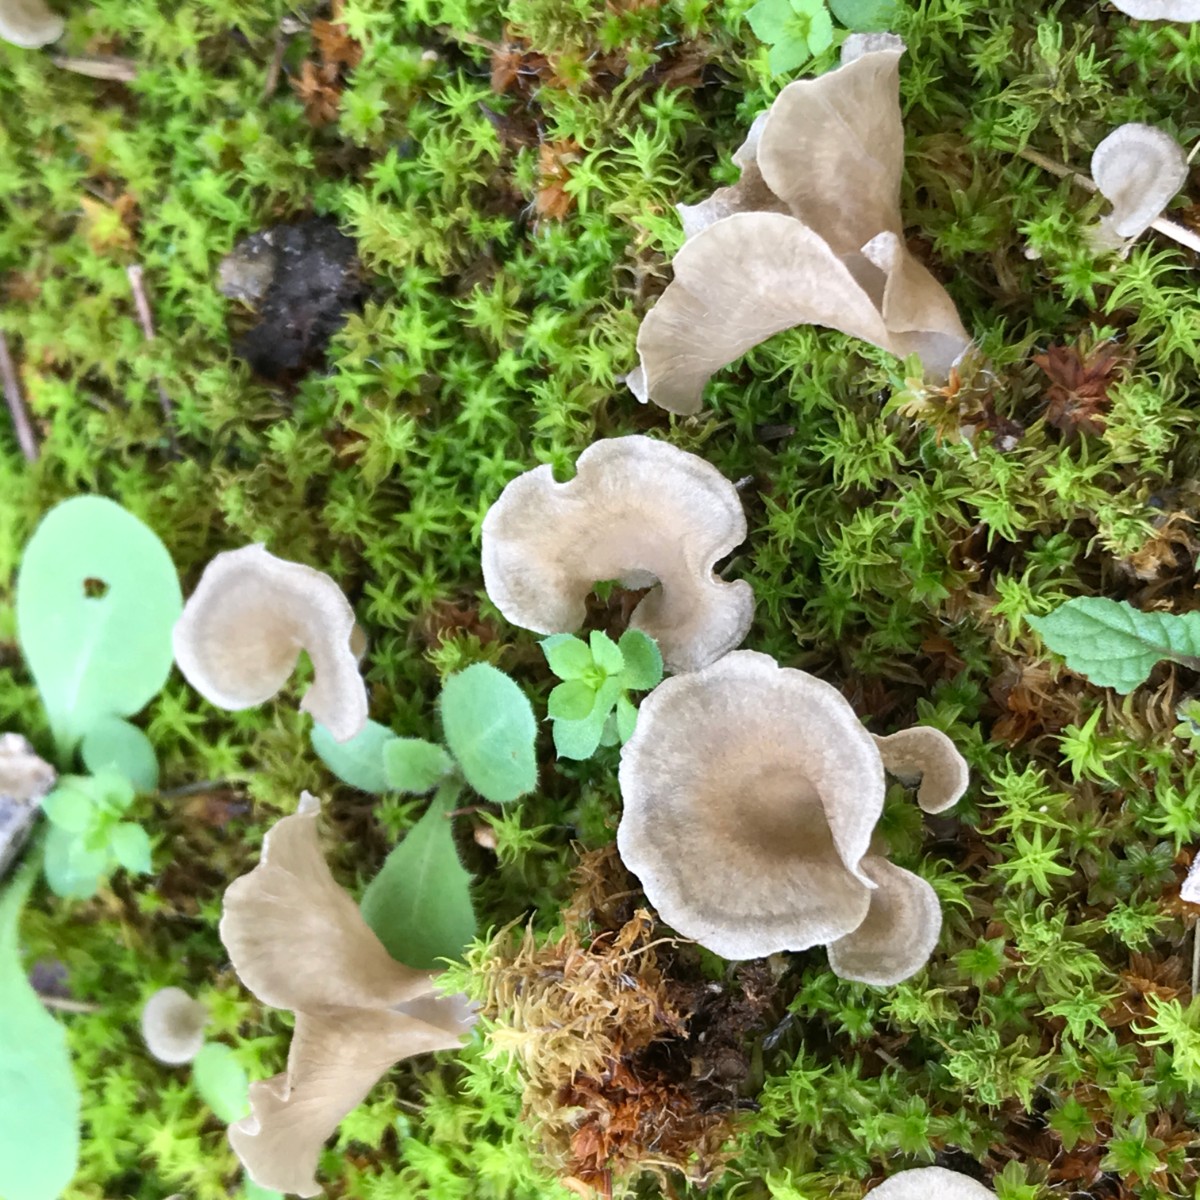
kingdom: Fungi
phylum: Basidiomycota
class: Agaricomycetes
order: Agaricales
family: Hygrophoraceae
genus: Arrhenia
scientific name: Arrhenia spathulata
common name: skæv fontænehat
